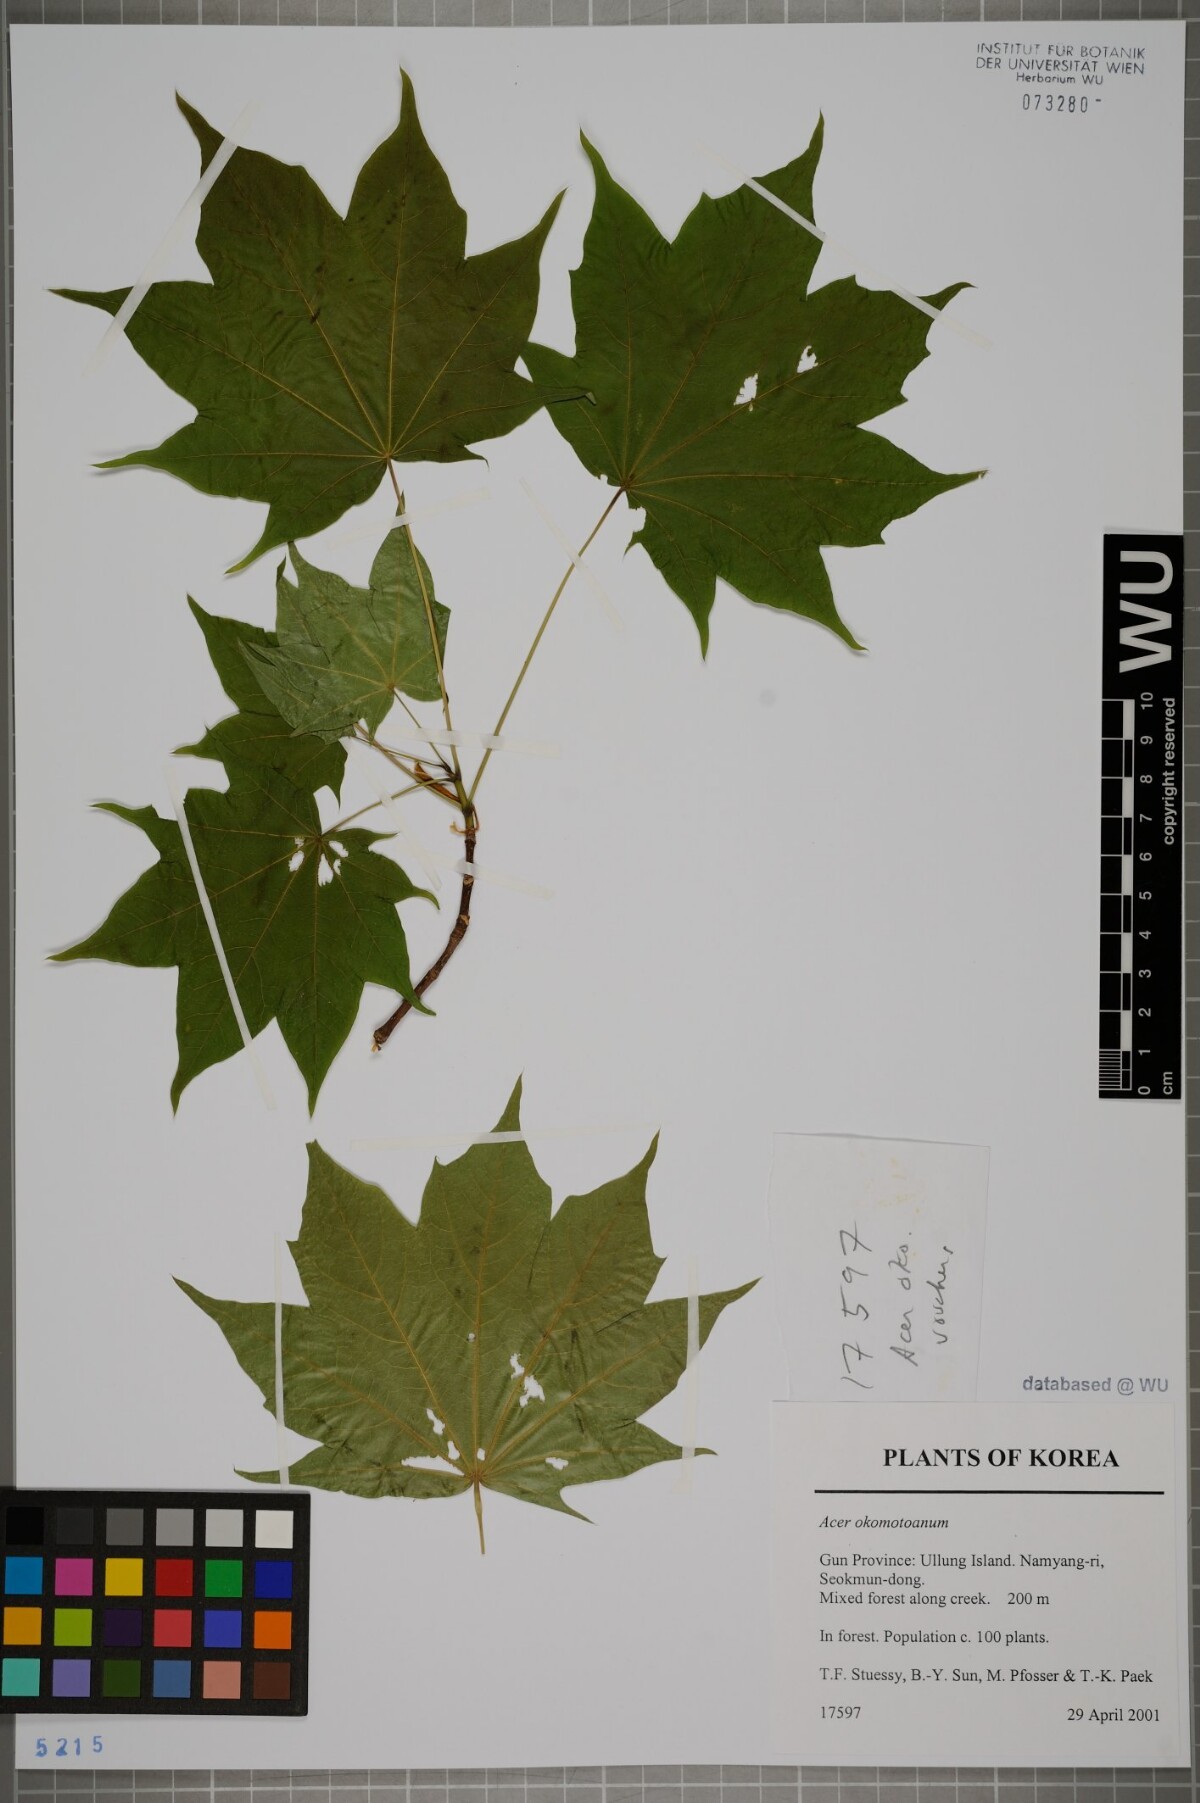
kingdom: Plantae
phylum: Tracheophyta
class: Magnoliopsida
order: Sapindales
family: Sapindaceae
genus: Acer
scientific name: Acer pictum
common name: The painted maple
